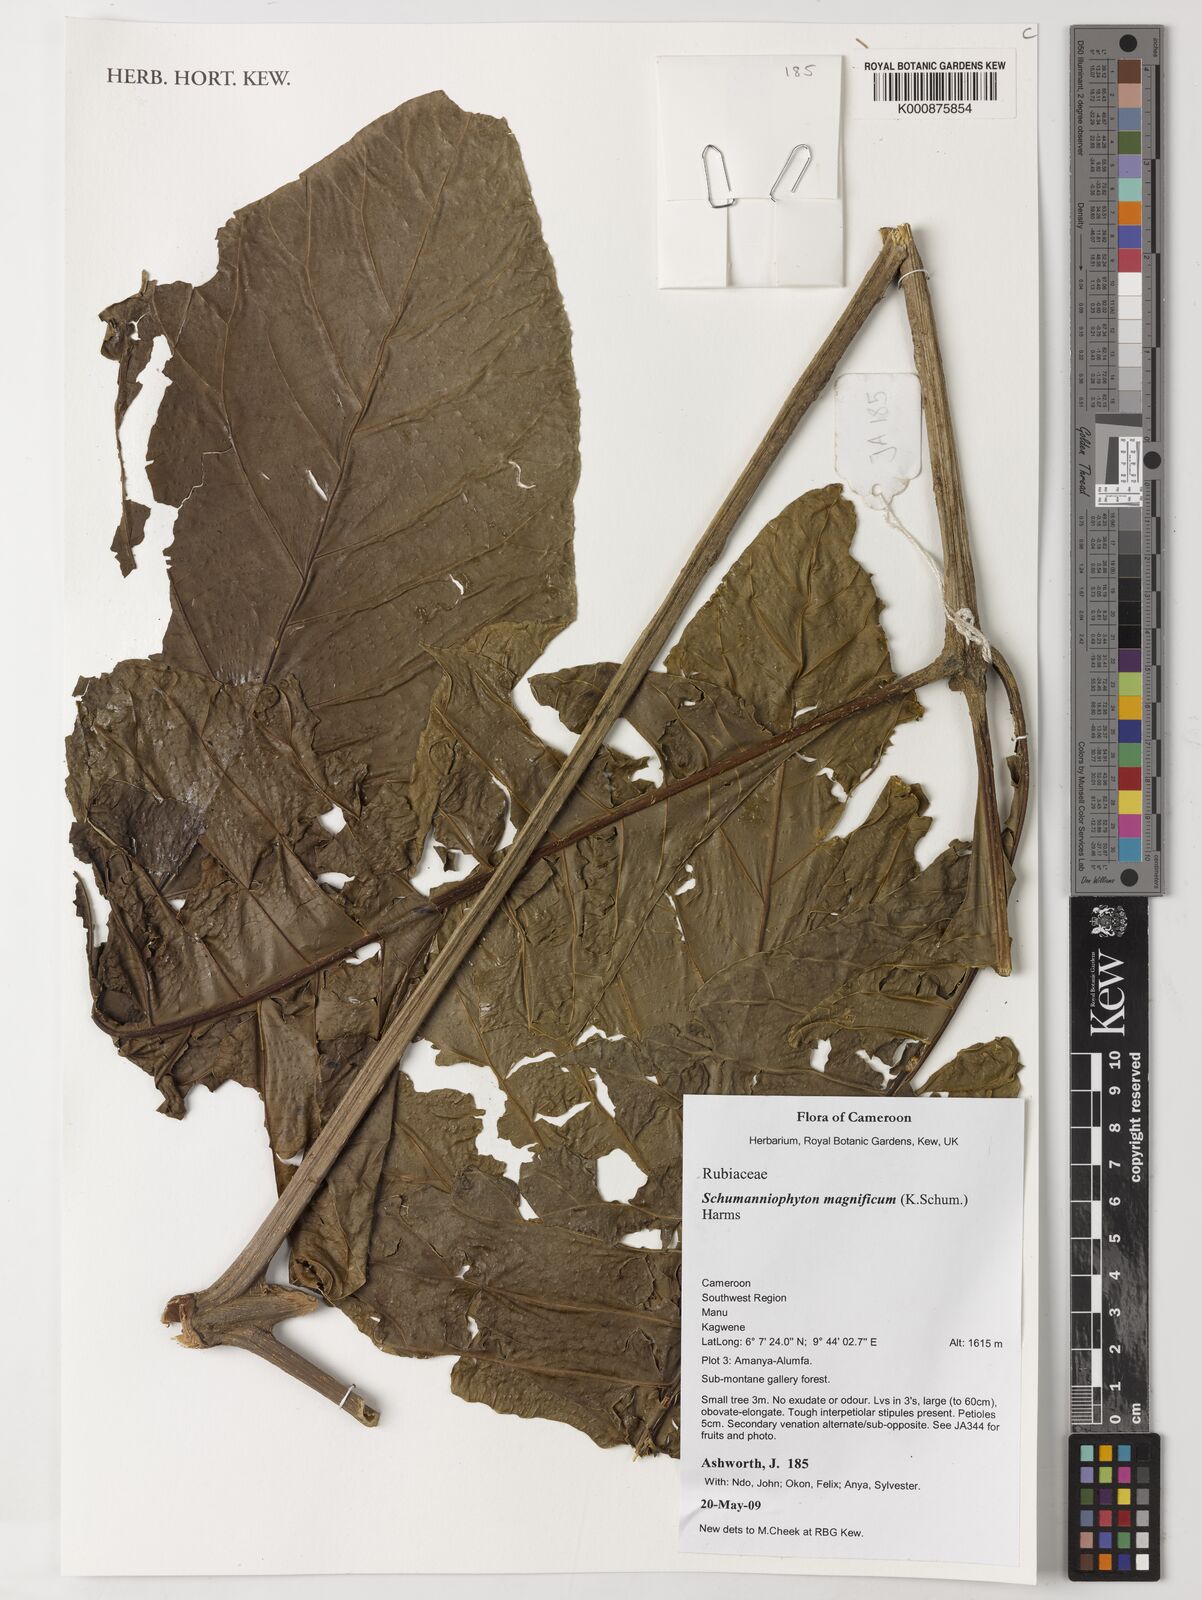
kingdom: Plantae
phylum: Tracheophyta
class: Magnoliopsida
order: Gentianales
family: Rubiaceae
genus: Schumanniophyton
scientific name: Schumanniophyton magnificum
